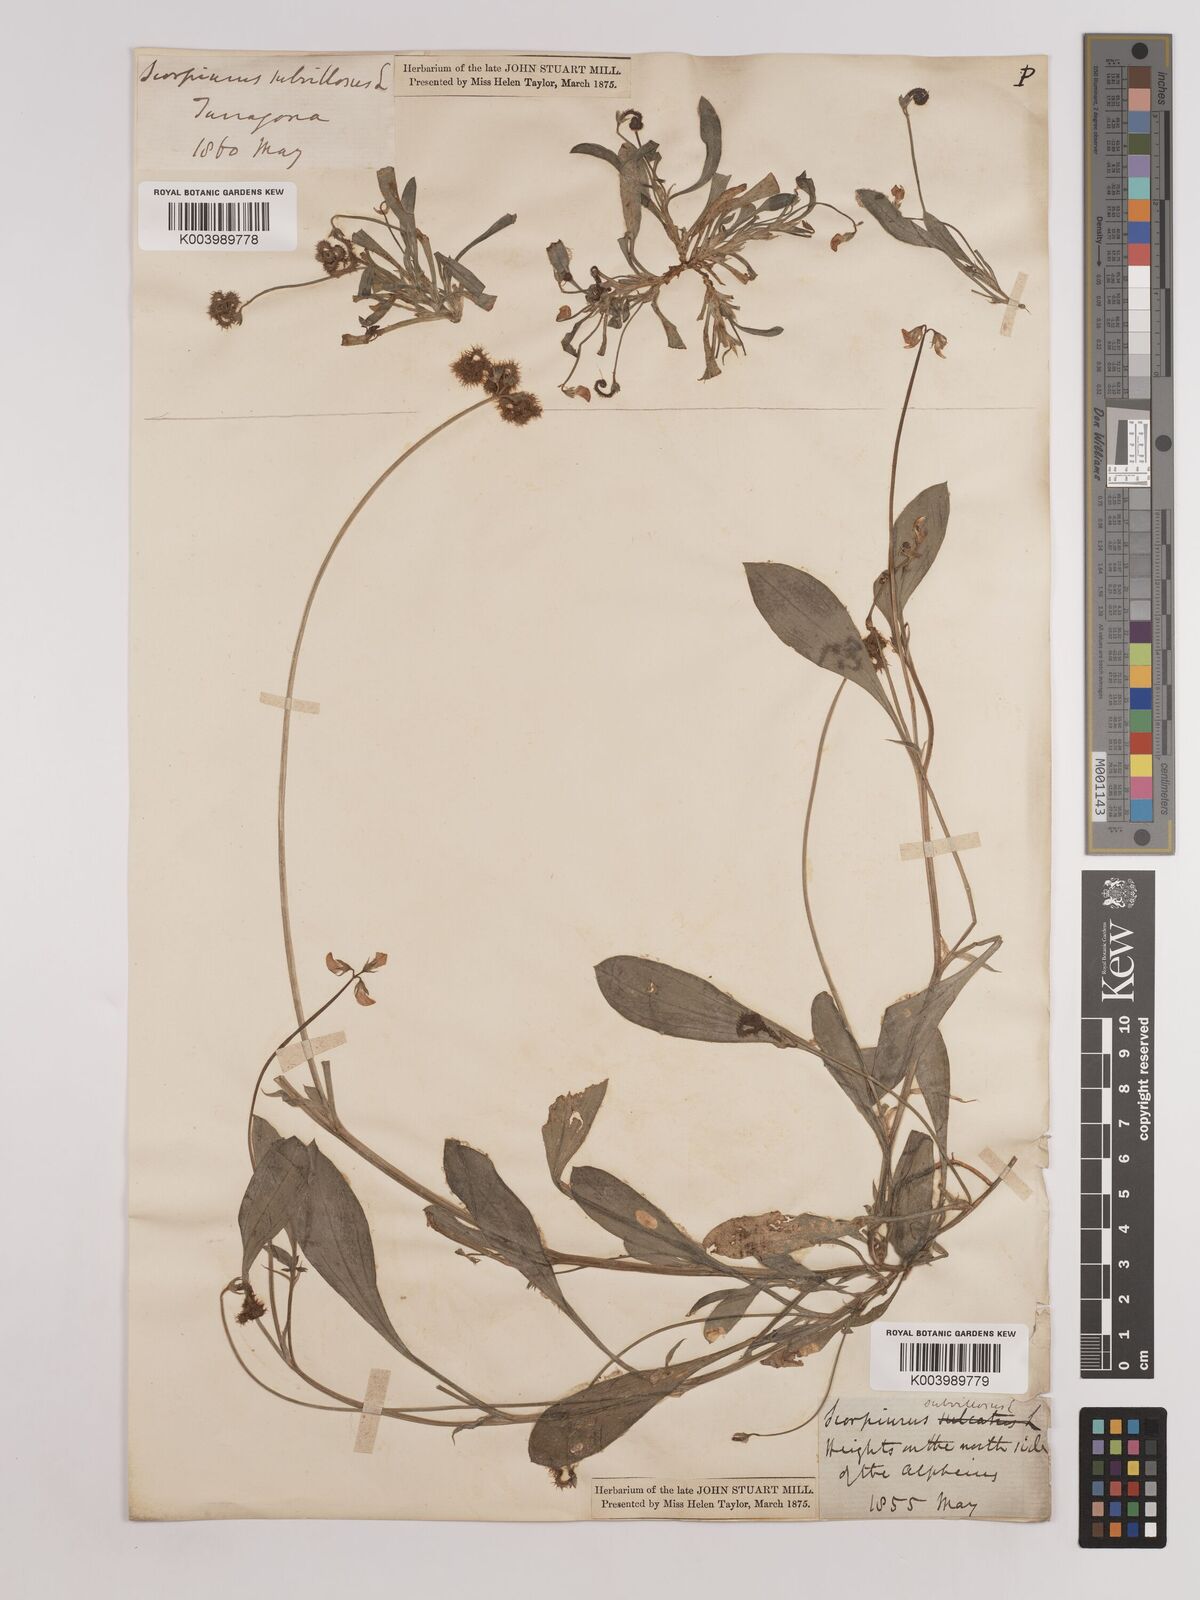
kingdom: Plantae
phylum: Tracheophyta
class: Magnoliopsida
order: Fabales
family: Fabaceae
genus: Scorpiurus
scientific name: Scorpiurus muricatus
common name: Caterpillar-plant
